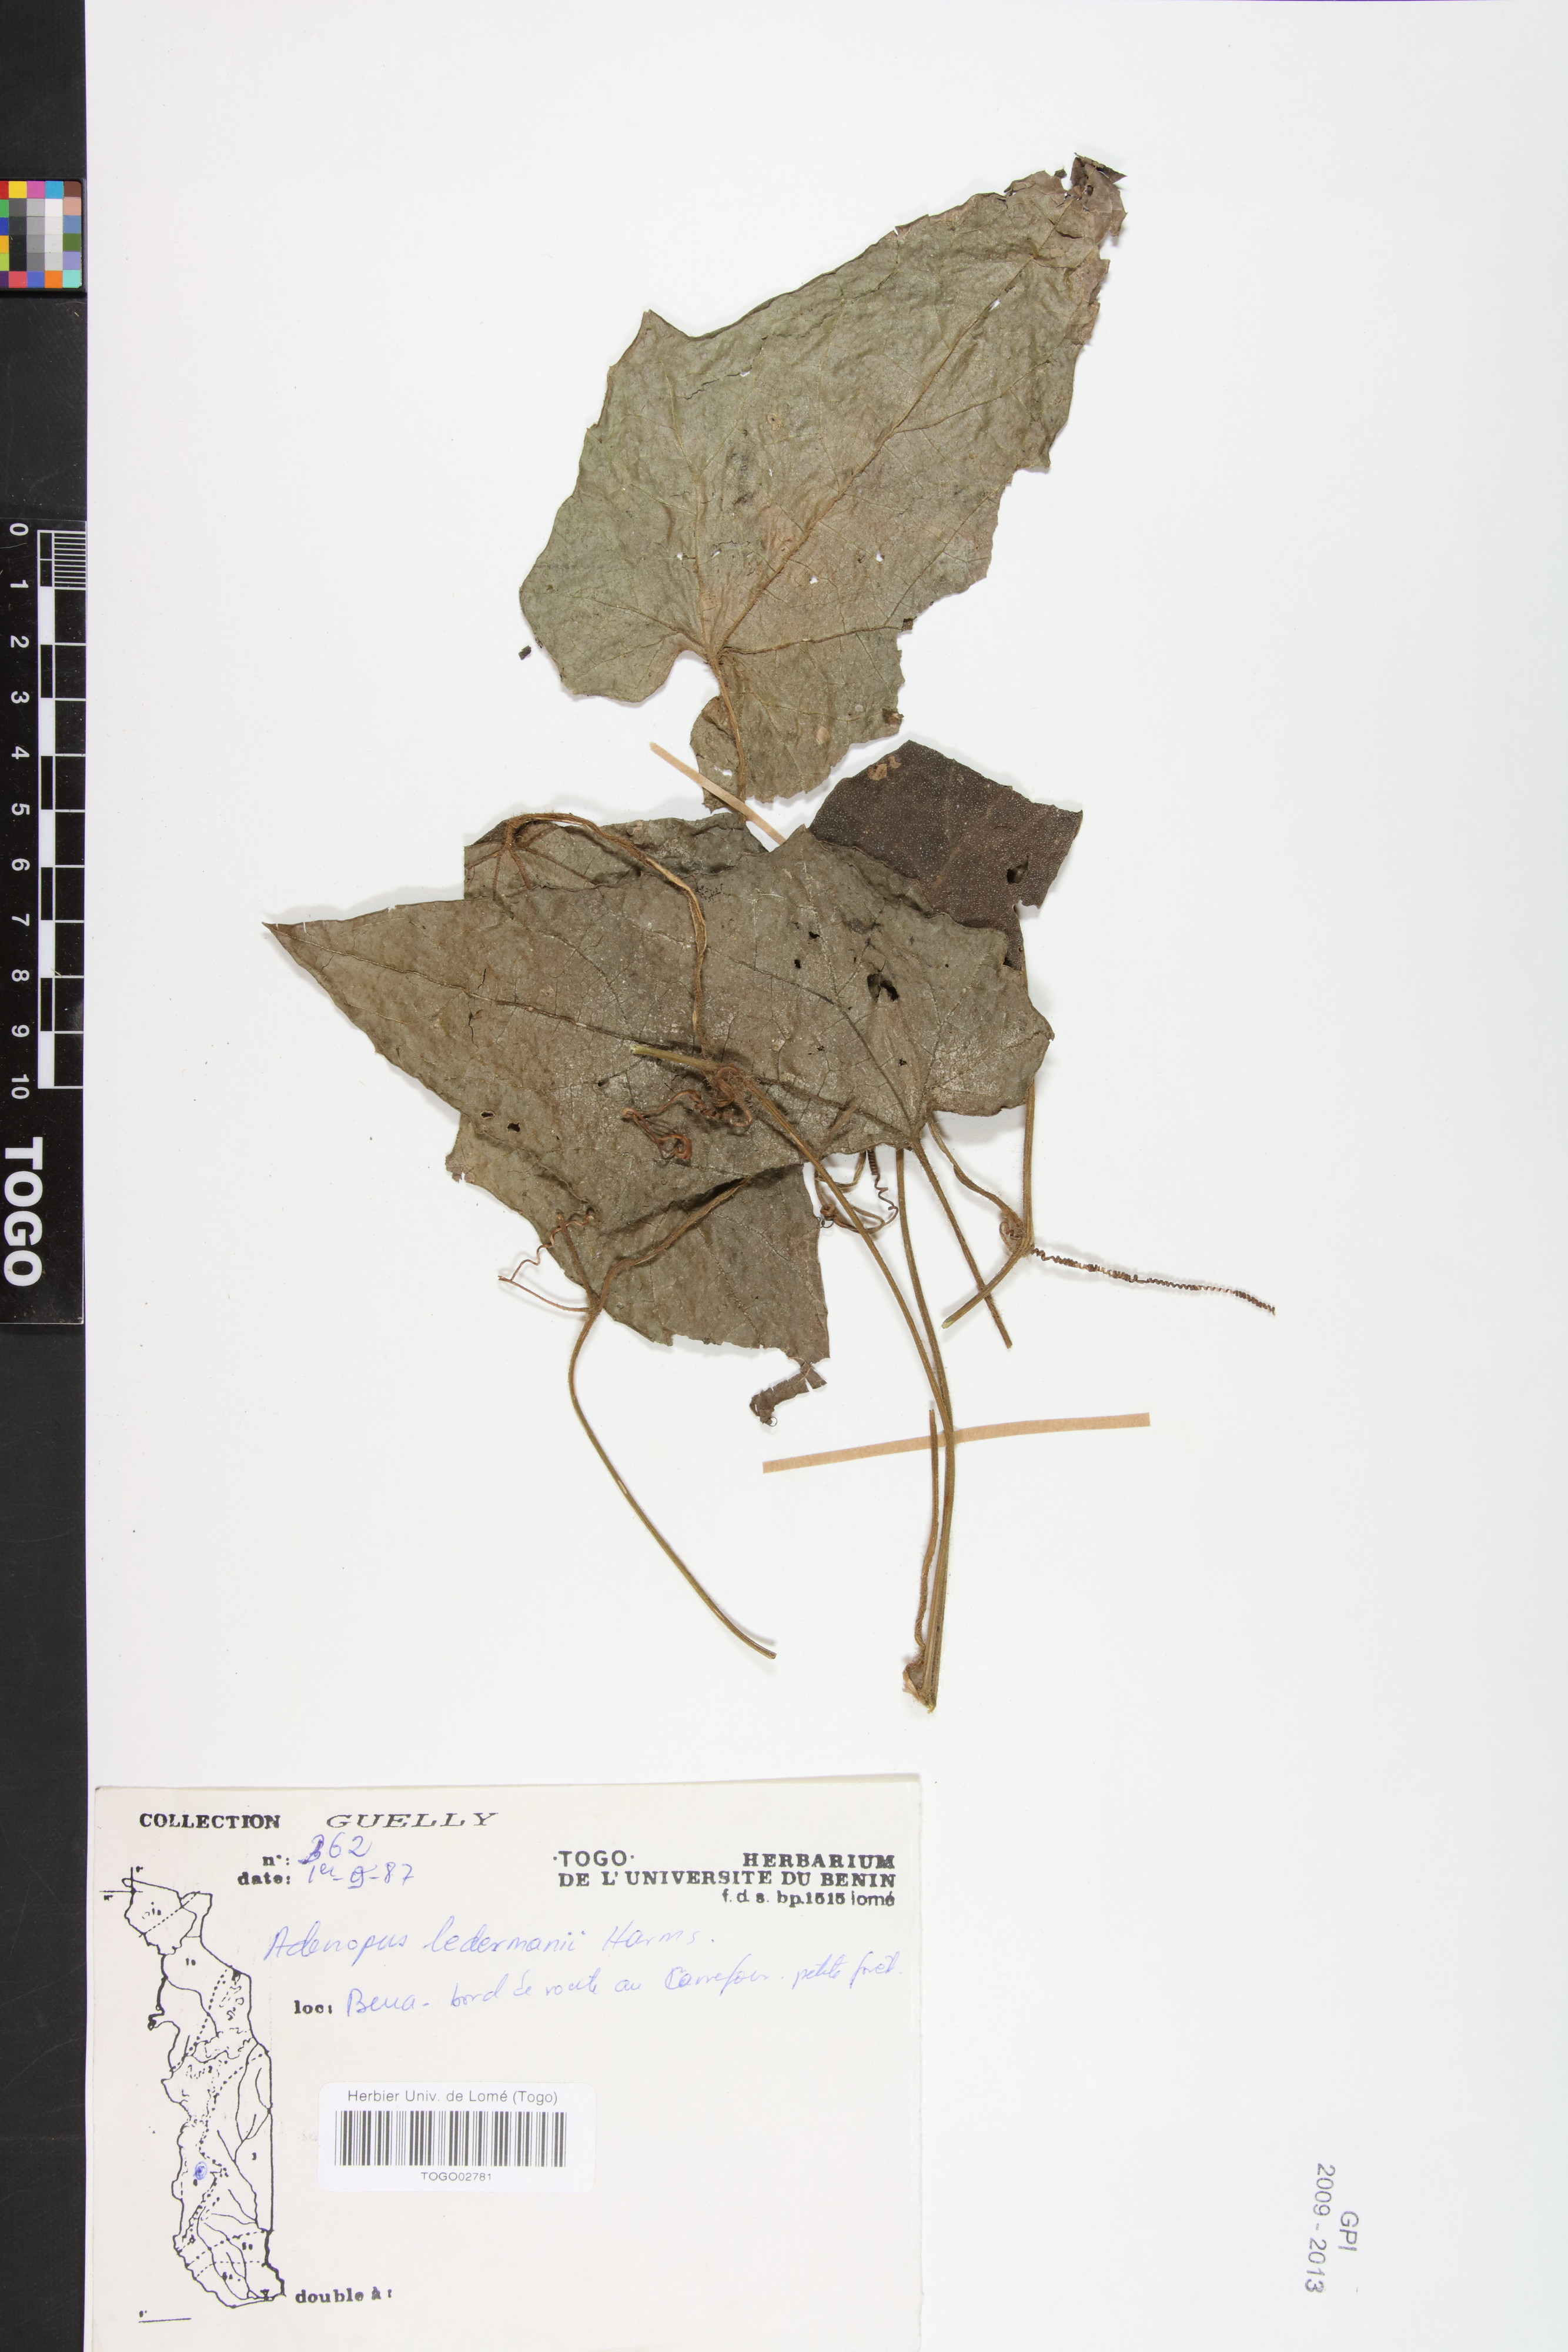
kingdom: Plantae
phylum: Tracheophyta
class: Magnoliopsida
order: Cucurbitales
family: Cucurbitaceae
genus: Lagenaria
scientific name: Lagenaria breviflora
